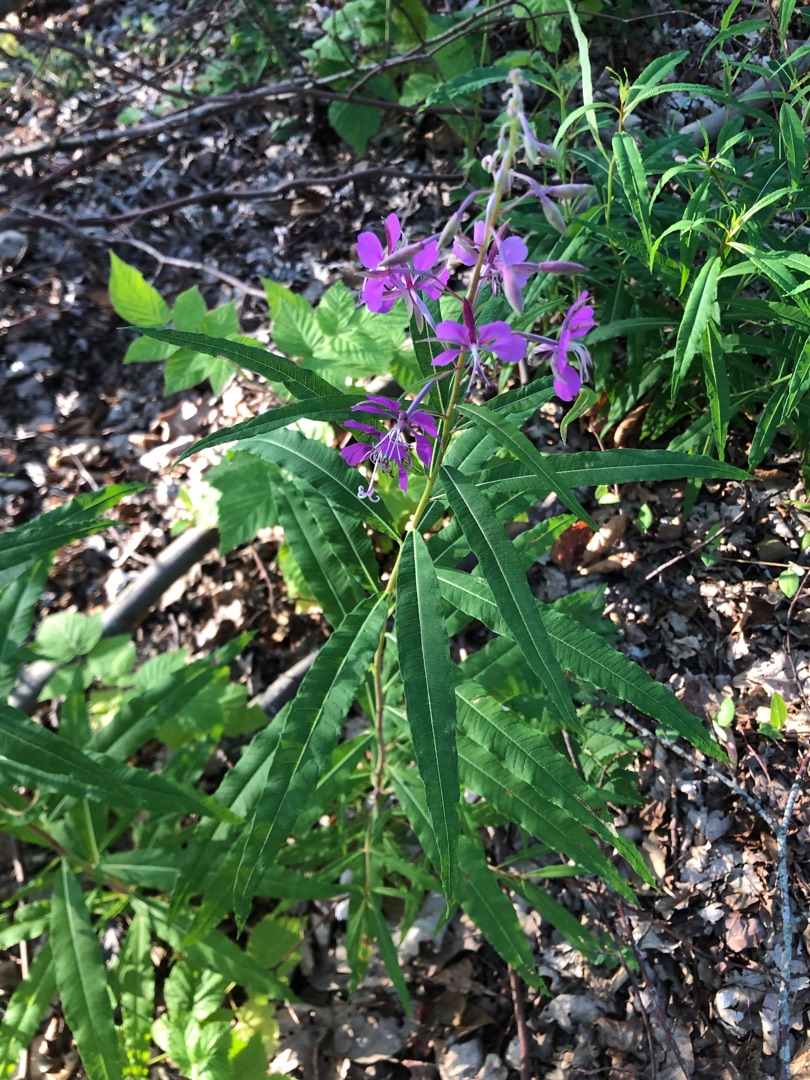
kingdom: Plantae
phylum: Tracheophyta
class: Magnoliopsida
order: Myrtales
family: Onagraceae
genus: Chamaenerion
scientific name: Chamaenerion angustifolium
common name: Gederams
